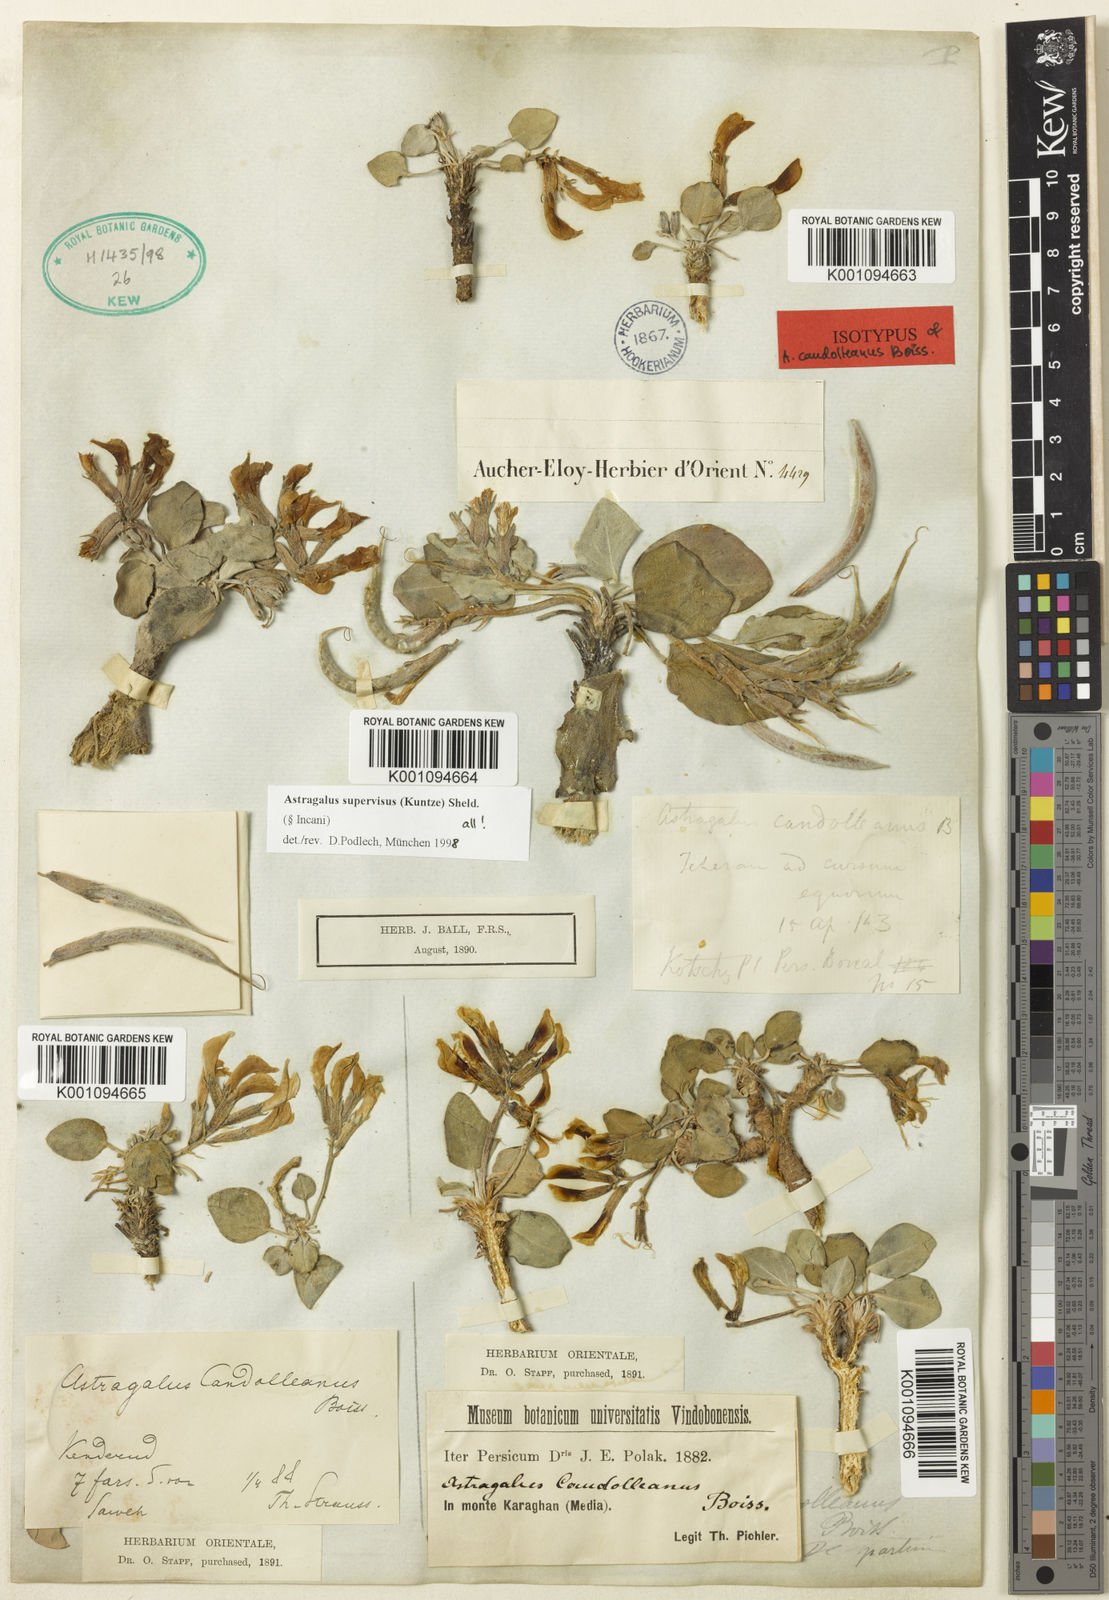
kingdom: Plantae
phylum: Tracheophyta
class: Magnoliopsida
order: Fabales
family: Fabaceae
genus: Astragalus
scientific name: Astragalus
